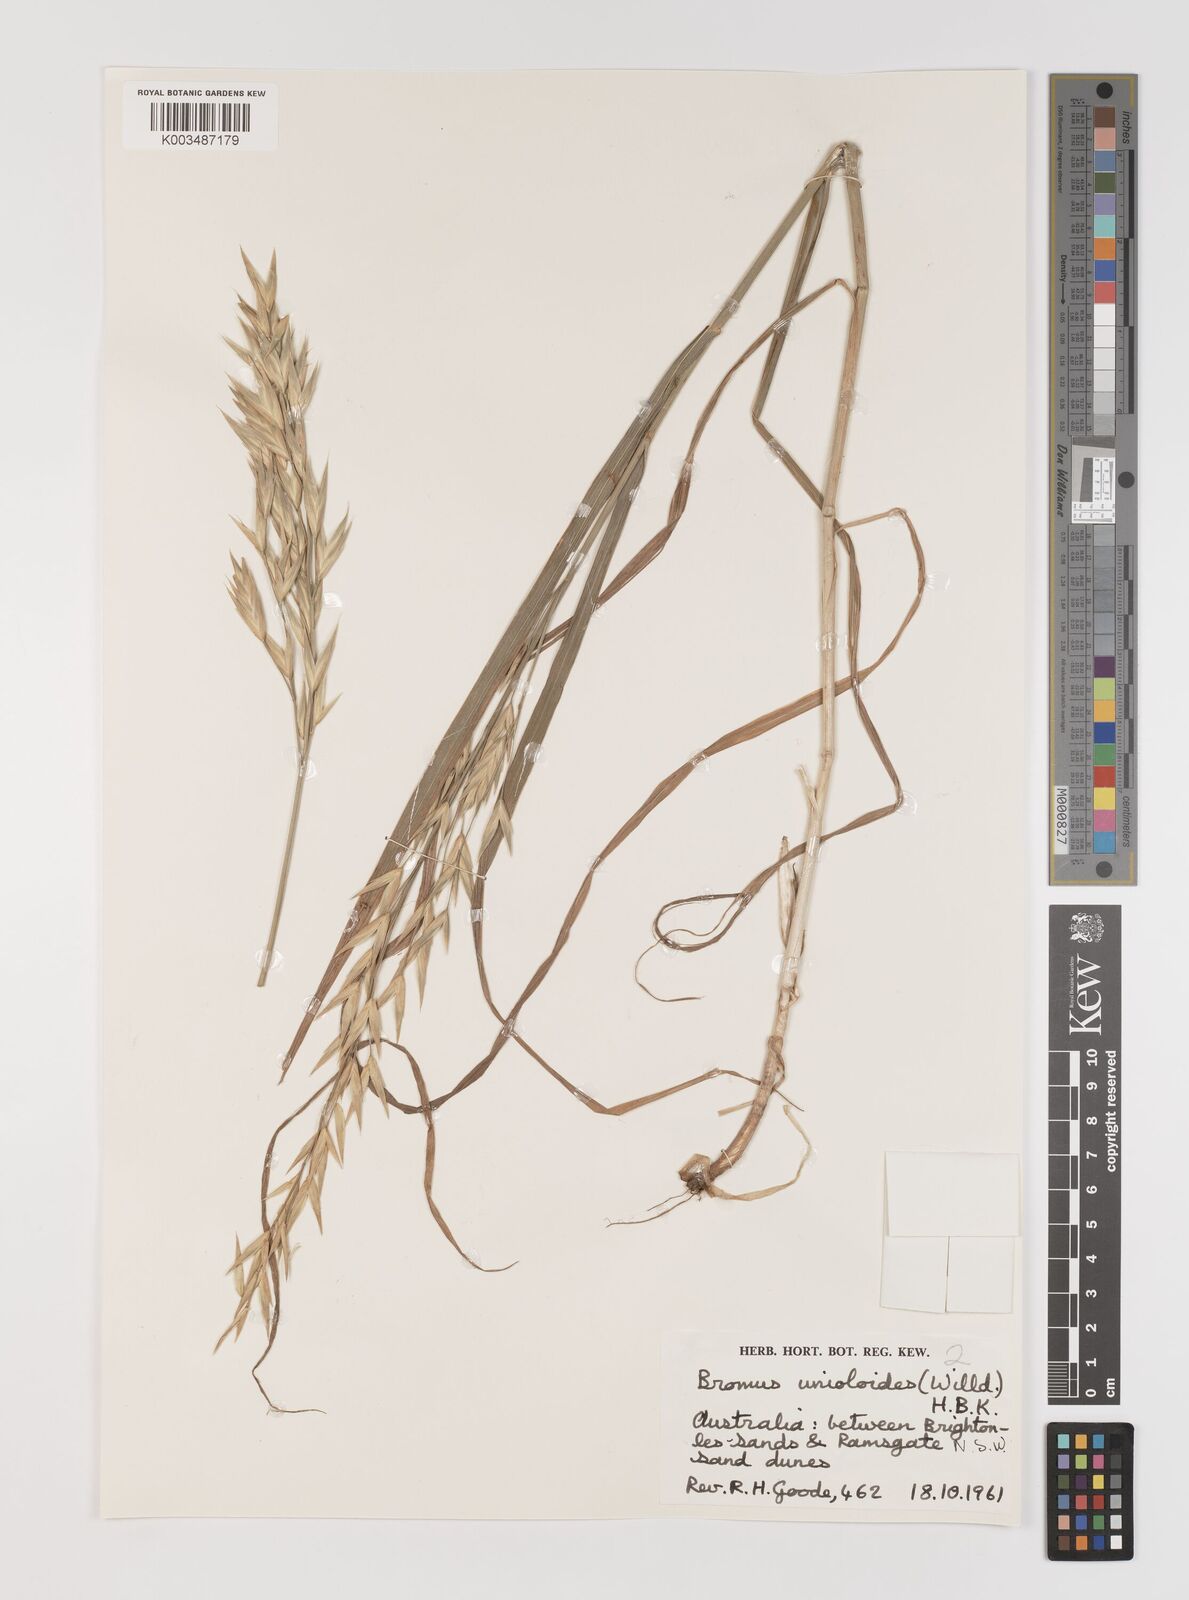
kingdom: Plantae
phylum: Tracheophyta
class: Liliopsida
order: Poales
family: Poaceae
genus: Bromus
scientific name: Bromus catharticus
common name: Rescuegrass
